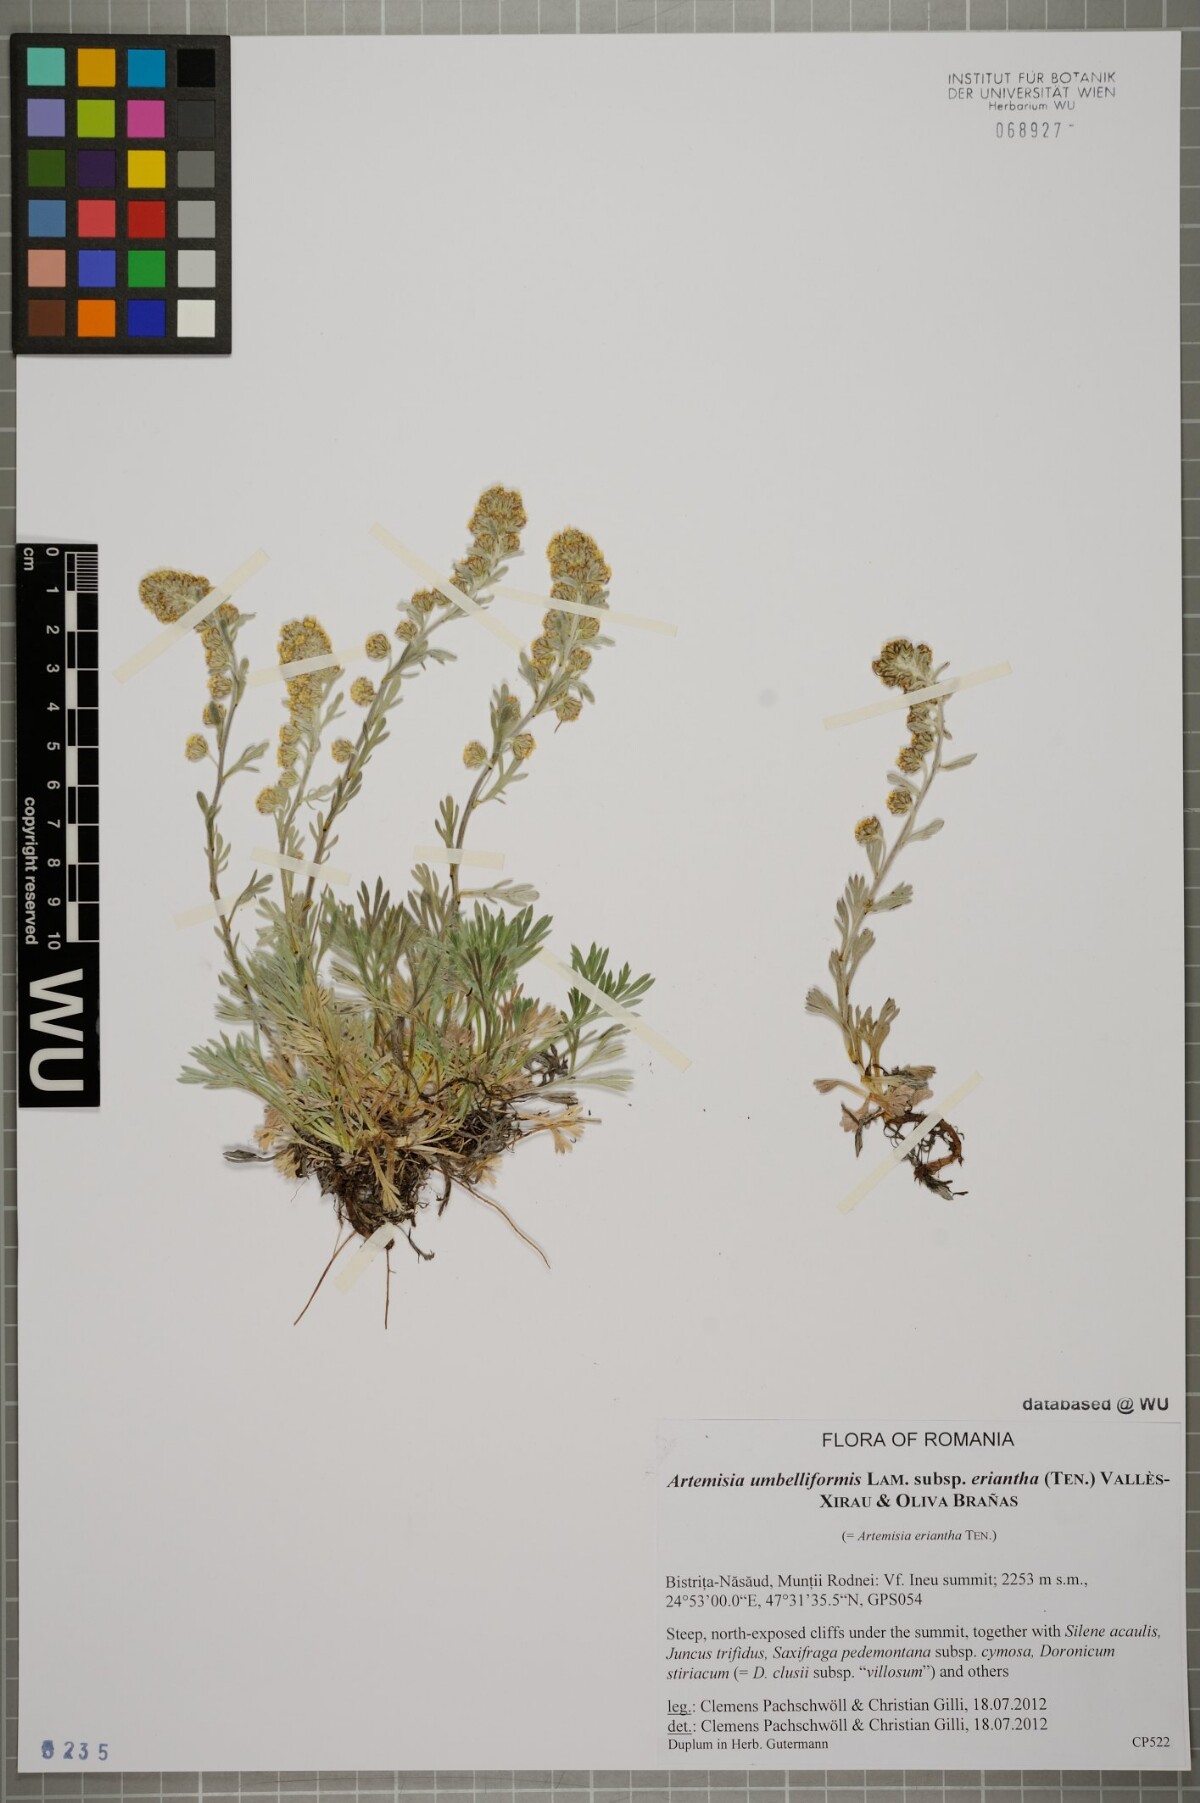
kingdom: Plantae
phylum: Tracheophyta
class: Magnoliopsida
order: Asterales
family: Asteraceae
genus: Artemisia
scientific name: Artemisia eriantha
